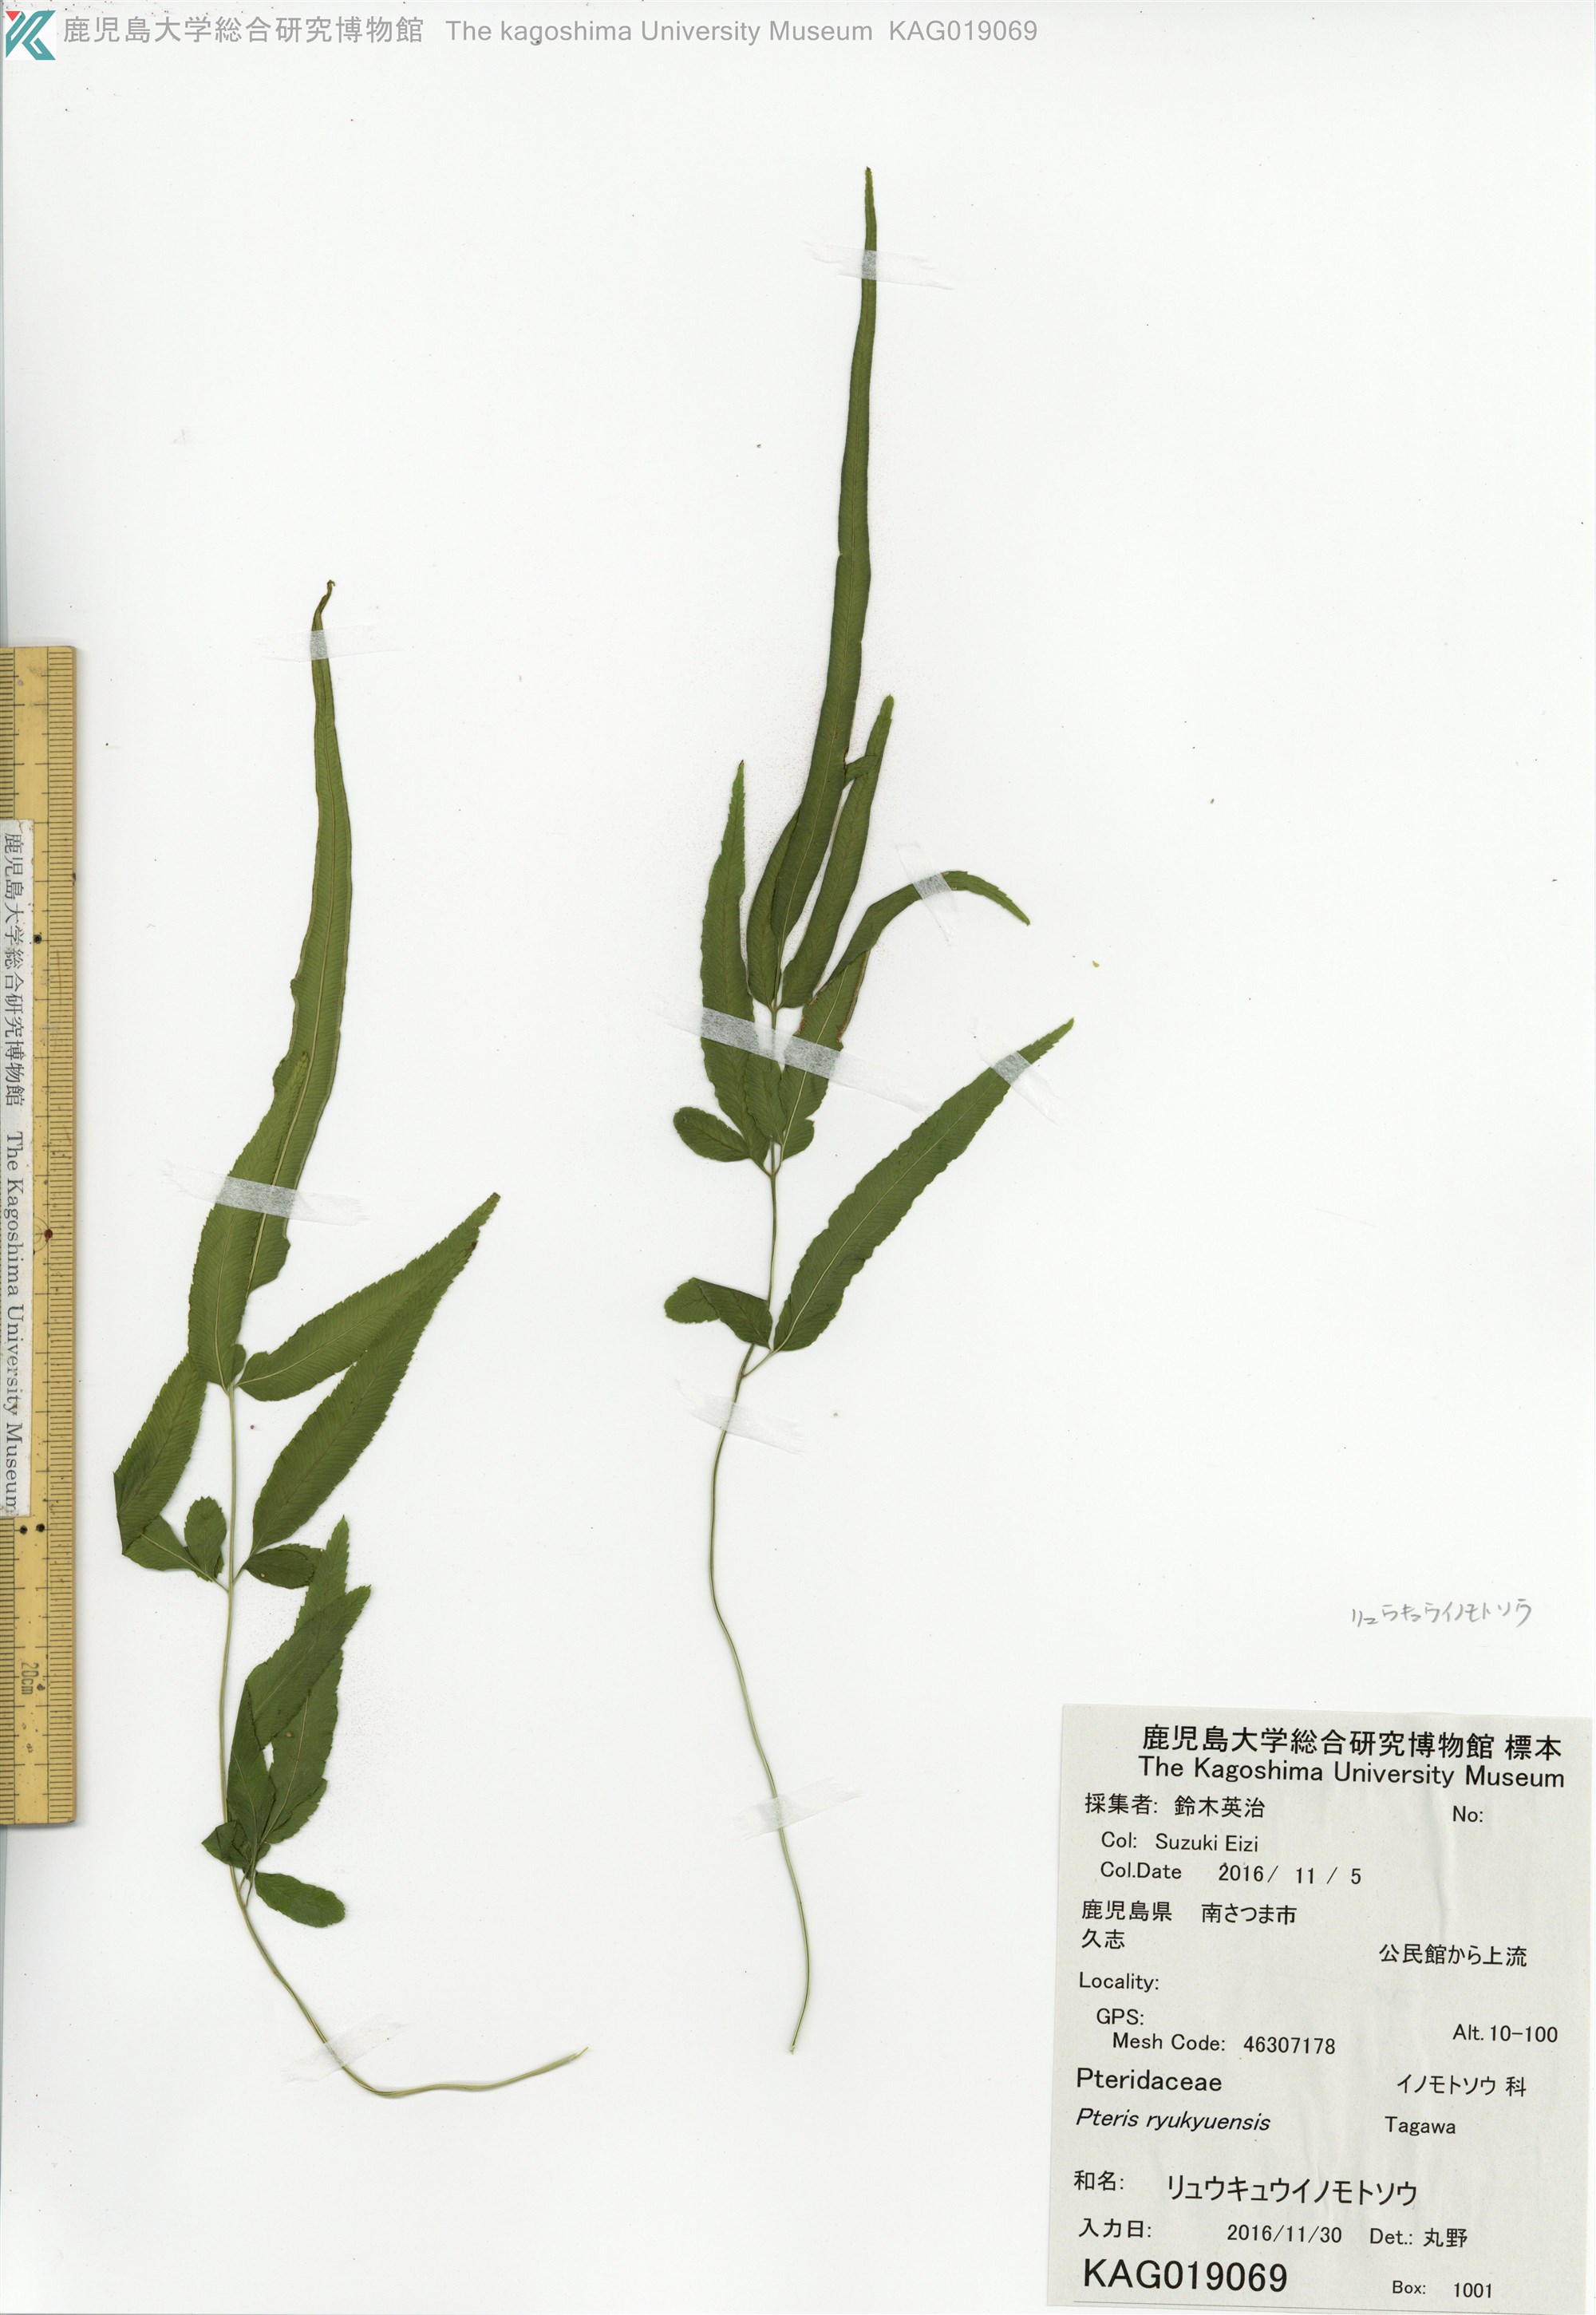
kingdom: Plantae
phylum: Tracheophyta
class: Polypodiopsida
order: Polypodiales
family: Pteridaceae
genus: Pteris
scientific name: Pteris ryukyuensis
